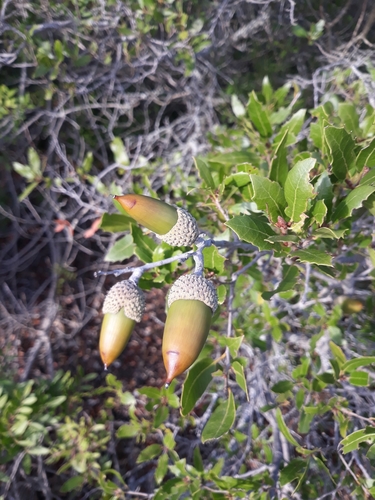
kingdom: Plantae
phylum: Tracheophyta
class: Magnoliopsida
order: Fagales
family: Fagaceae
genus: Quercus
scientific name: Quercus coccifera
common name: Kermes oak
